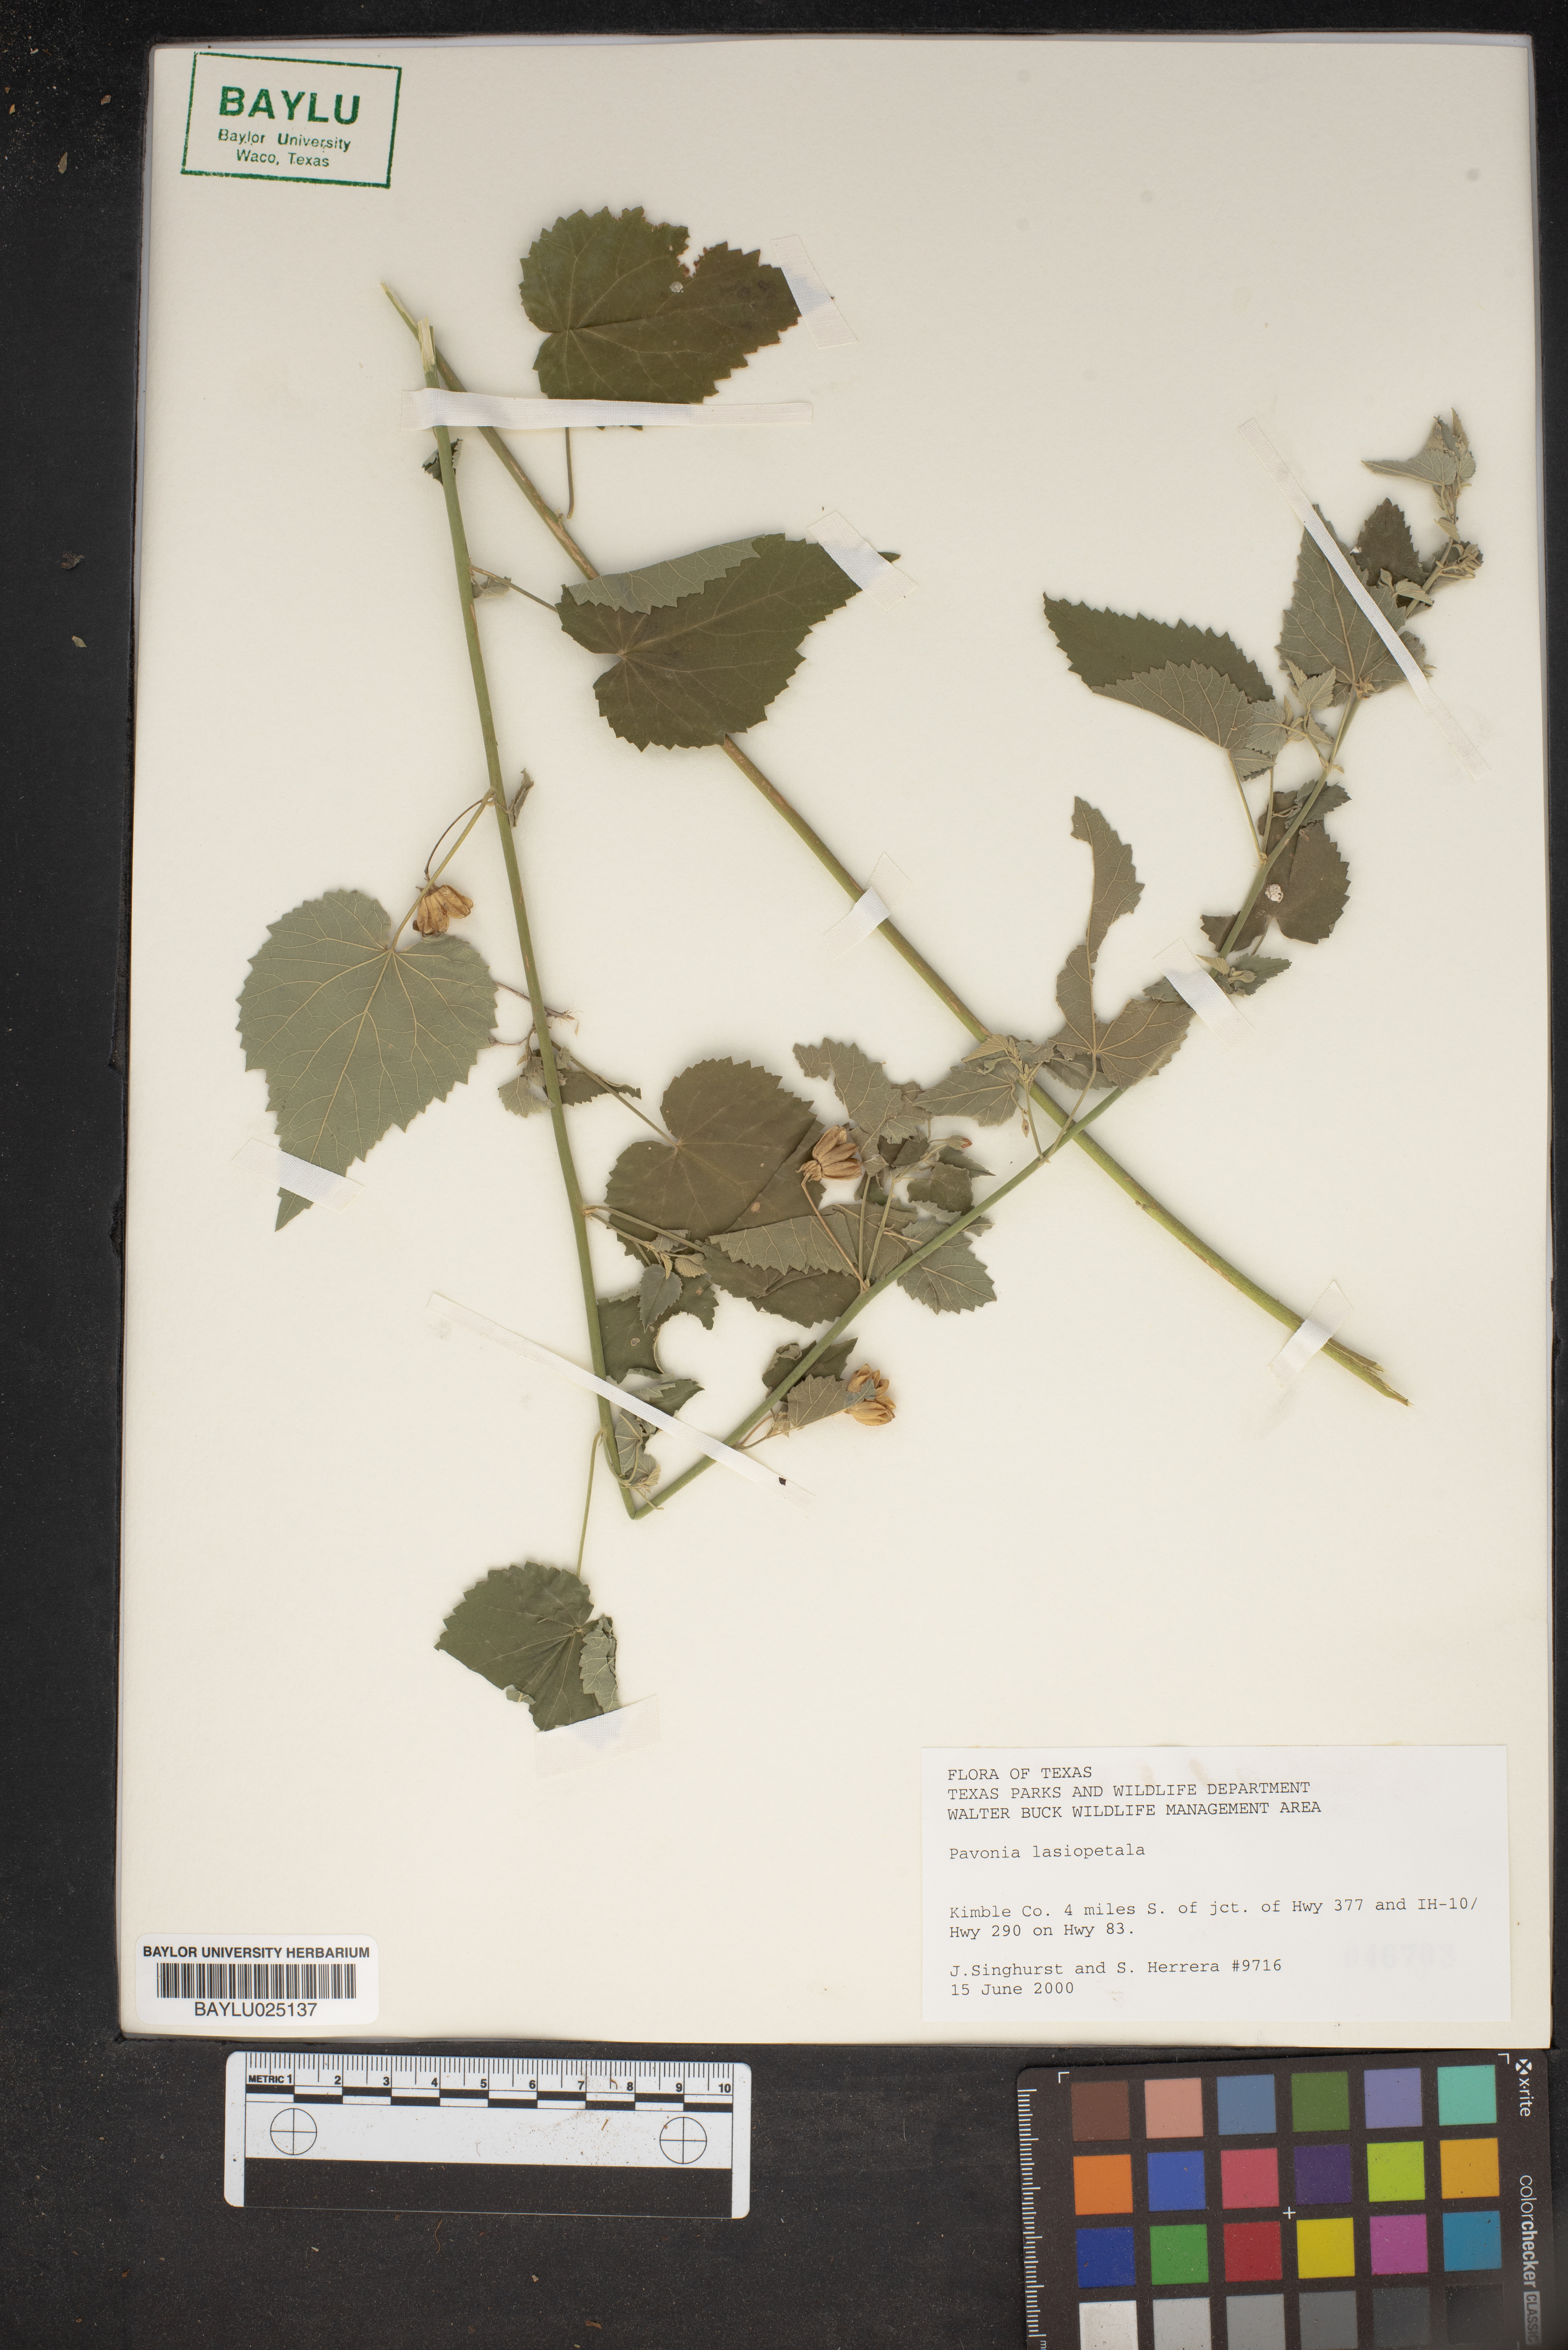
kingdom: Plantae
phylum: Tracheophyta
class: Magnoliopsida
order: Malvales
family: Malvaceae
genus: Pavonia
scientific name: Pavonia lasiopetala
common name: Texas swamp-mallow
